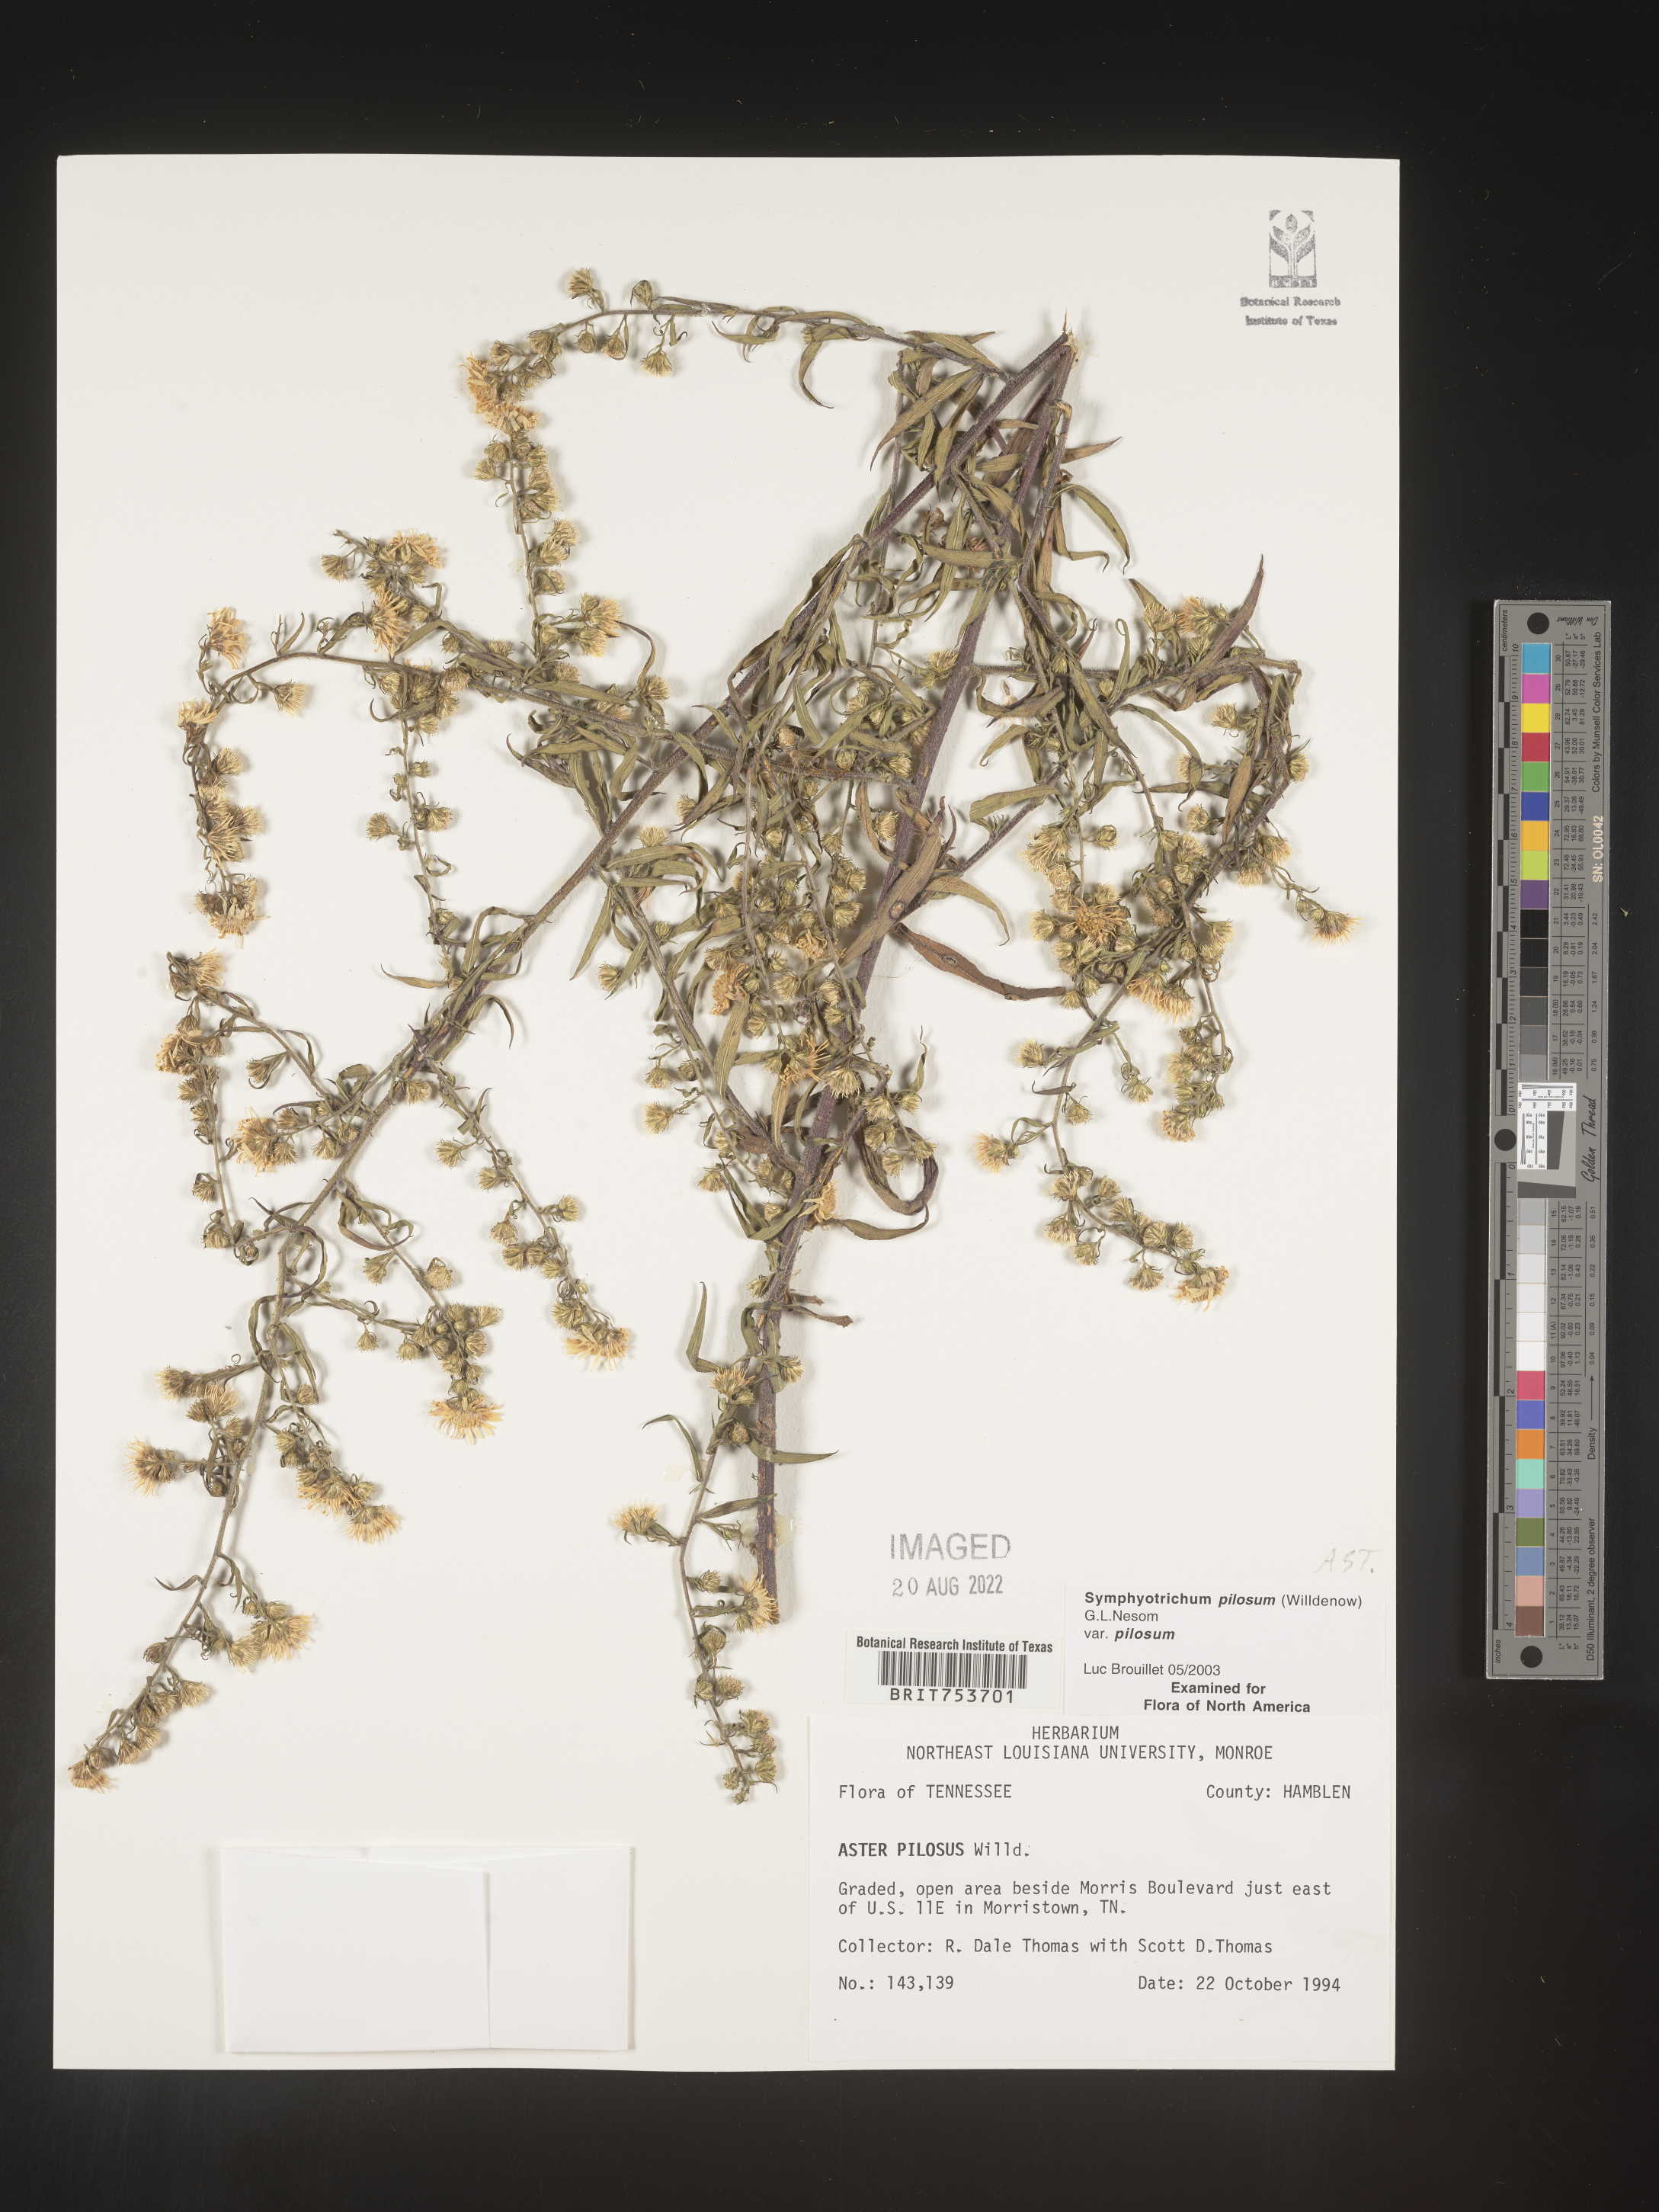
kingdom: Plantae
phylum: Tracheophyta
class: Magnoliopsida
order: Asterales
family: Asteraceae
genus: Symphyotrichum
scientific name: Symphyotrichum pilosum
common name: Awl aster
